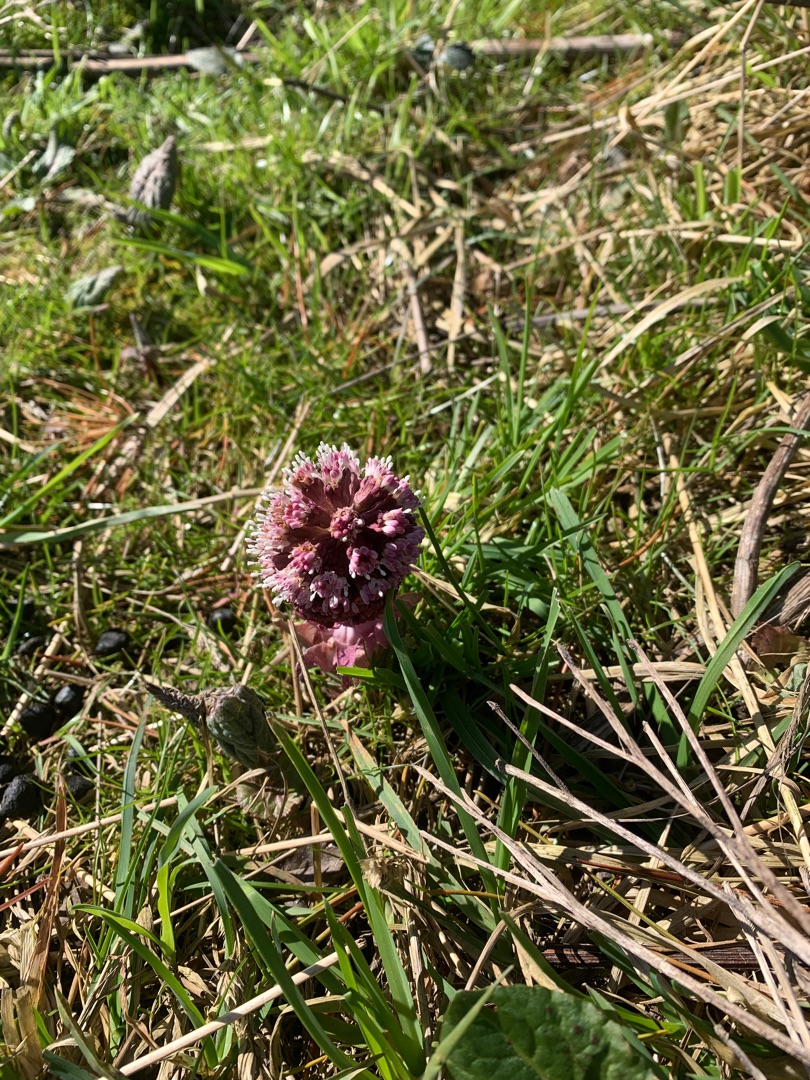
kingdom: Plantae
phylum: Tracheophyta
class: Magnoliopsida
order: Asterales
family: Asteraceae
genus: Petasites
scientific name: Petasites hybridus
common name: Rød hestehov
